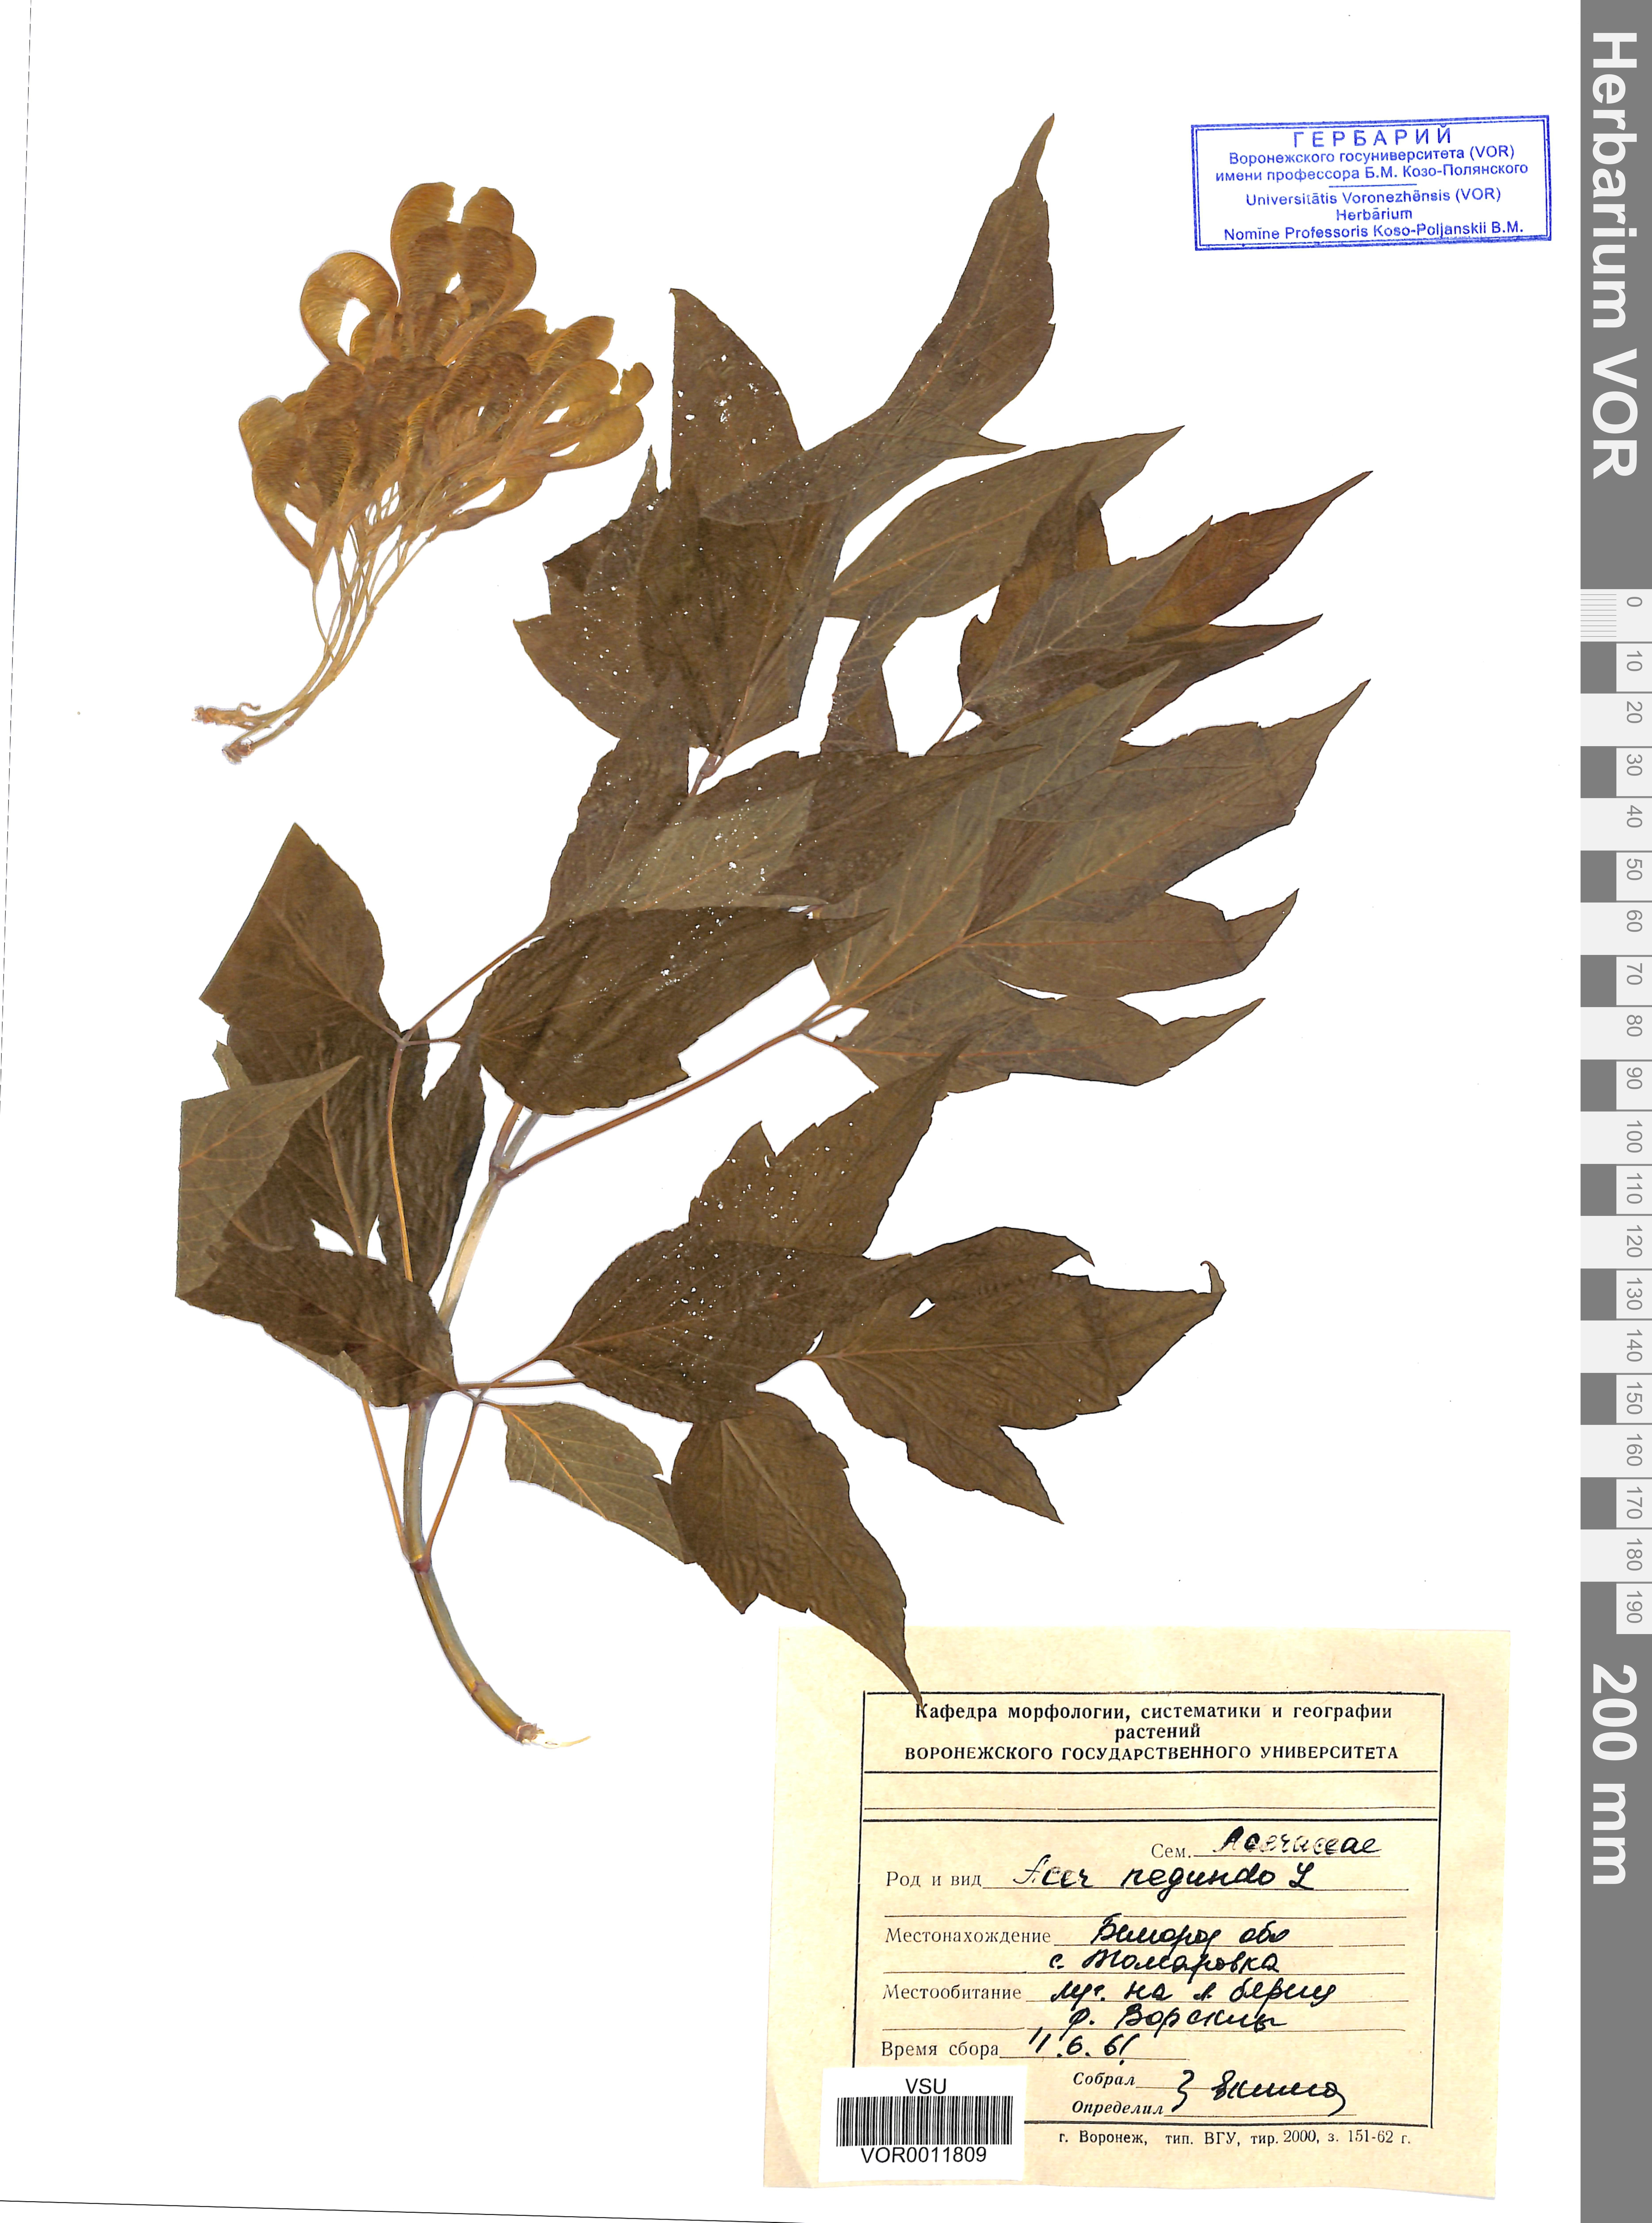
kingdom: Plantae
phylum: Tracheophyta
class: Magnoliopsida
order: Sapindales
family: Sapindaceae
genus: Acer
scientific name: Acer negundo
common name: Ashleaf maple
